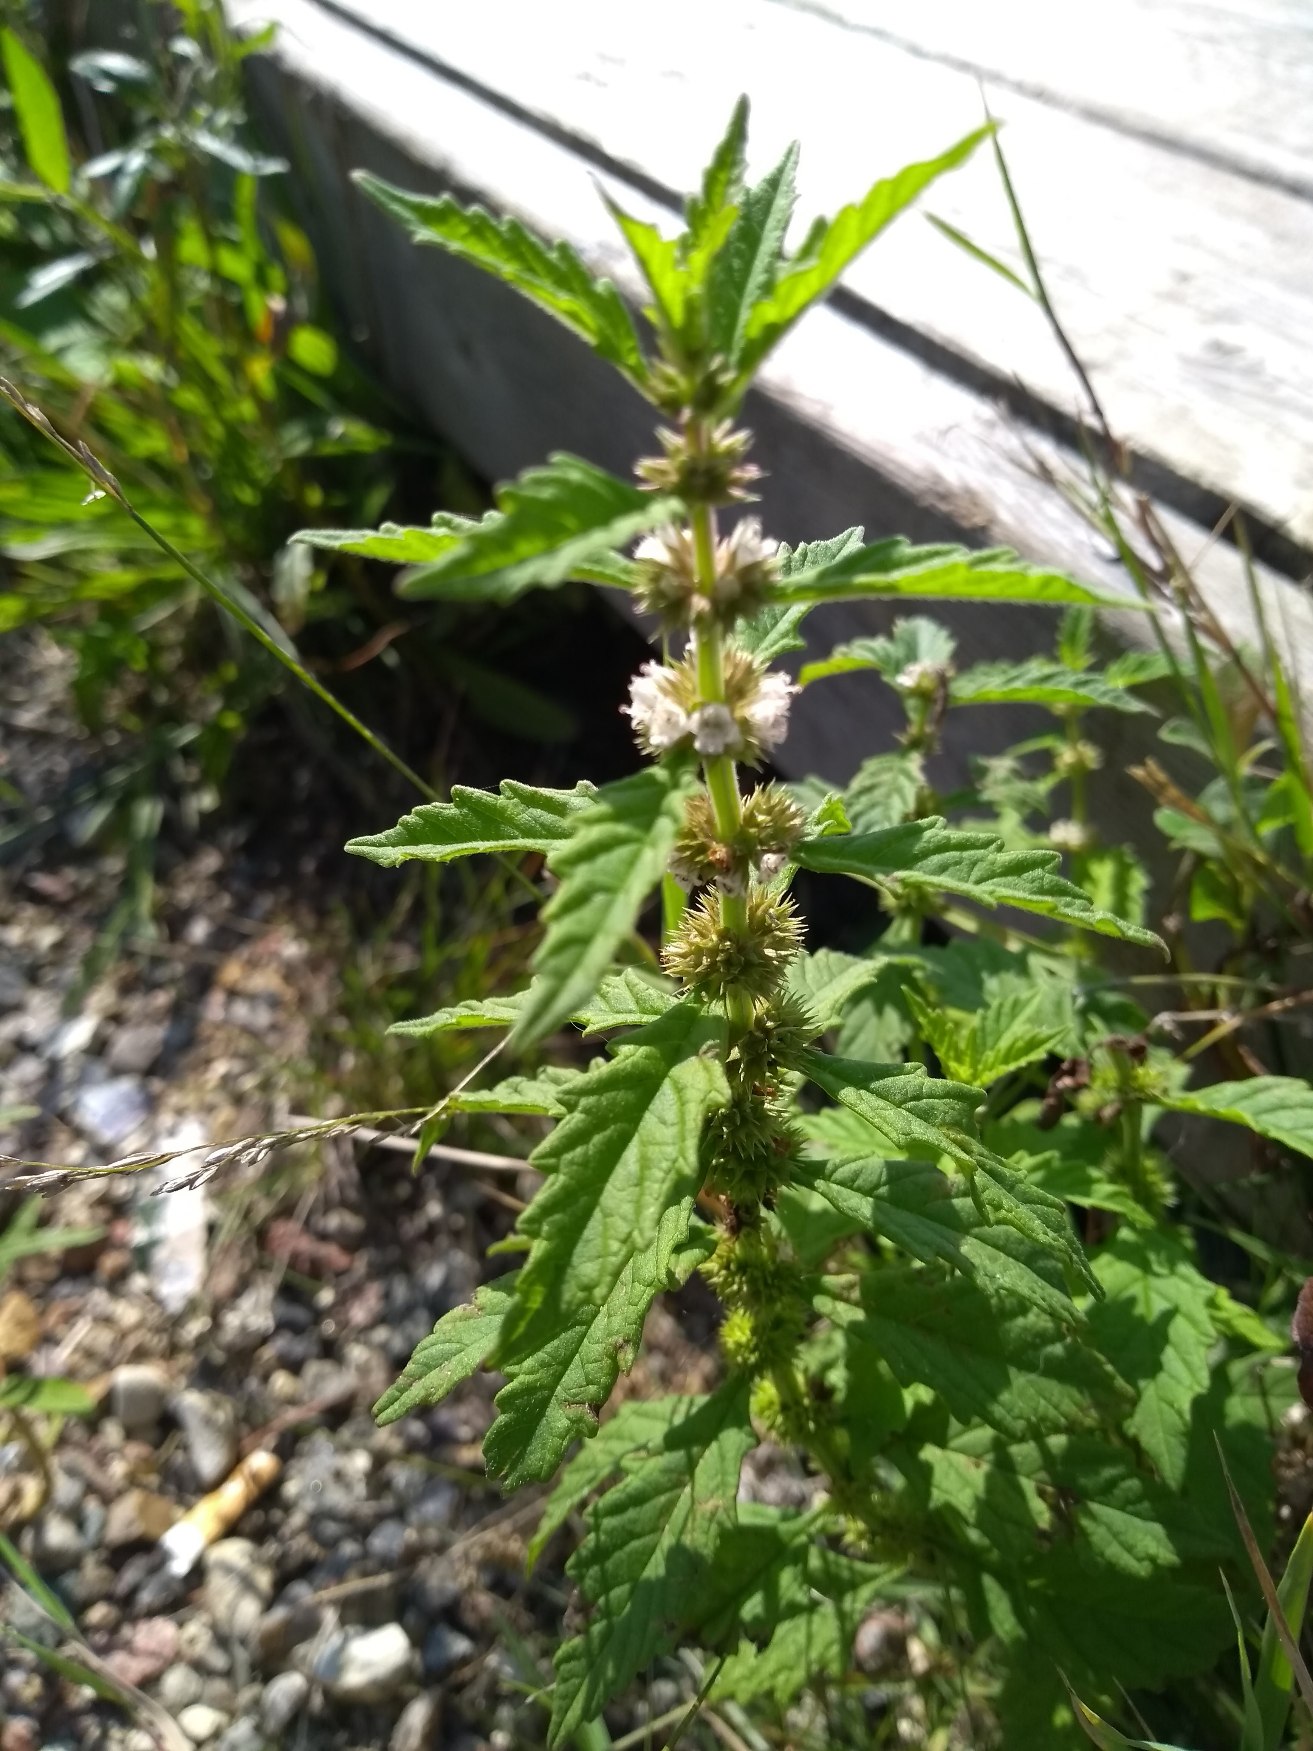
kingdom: Plantae
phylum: Tracheophyta
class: Magnoliopsida
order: Lamiales
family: Lamiaceae
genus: Lycopus
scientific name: Lycopus europaeus
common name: Sværtevæld
